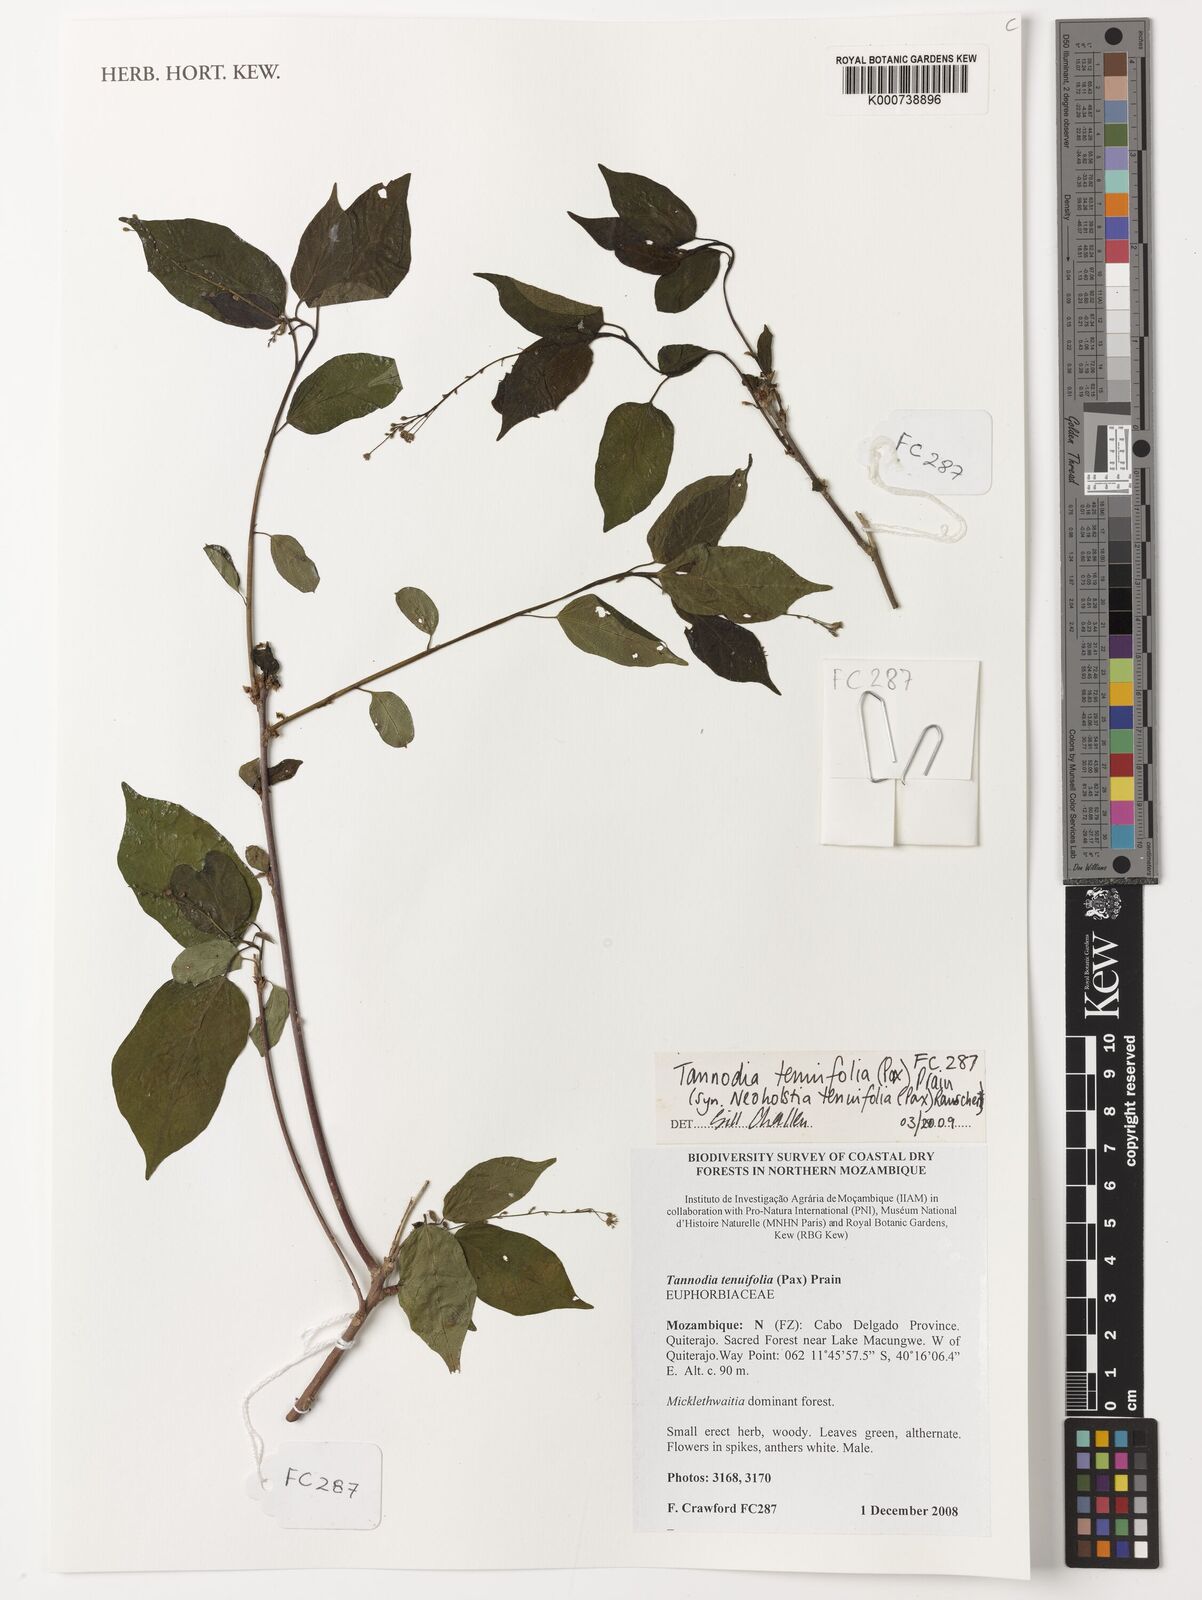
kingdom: Plantae
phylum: Tracheophyta
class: Magnoliopsida
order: Malpighiales
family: Euphorbiaceae
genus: Tannodia
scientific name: Tannodia tenuifolia
